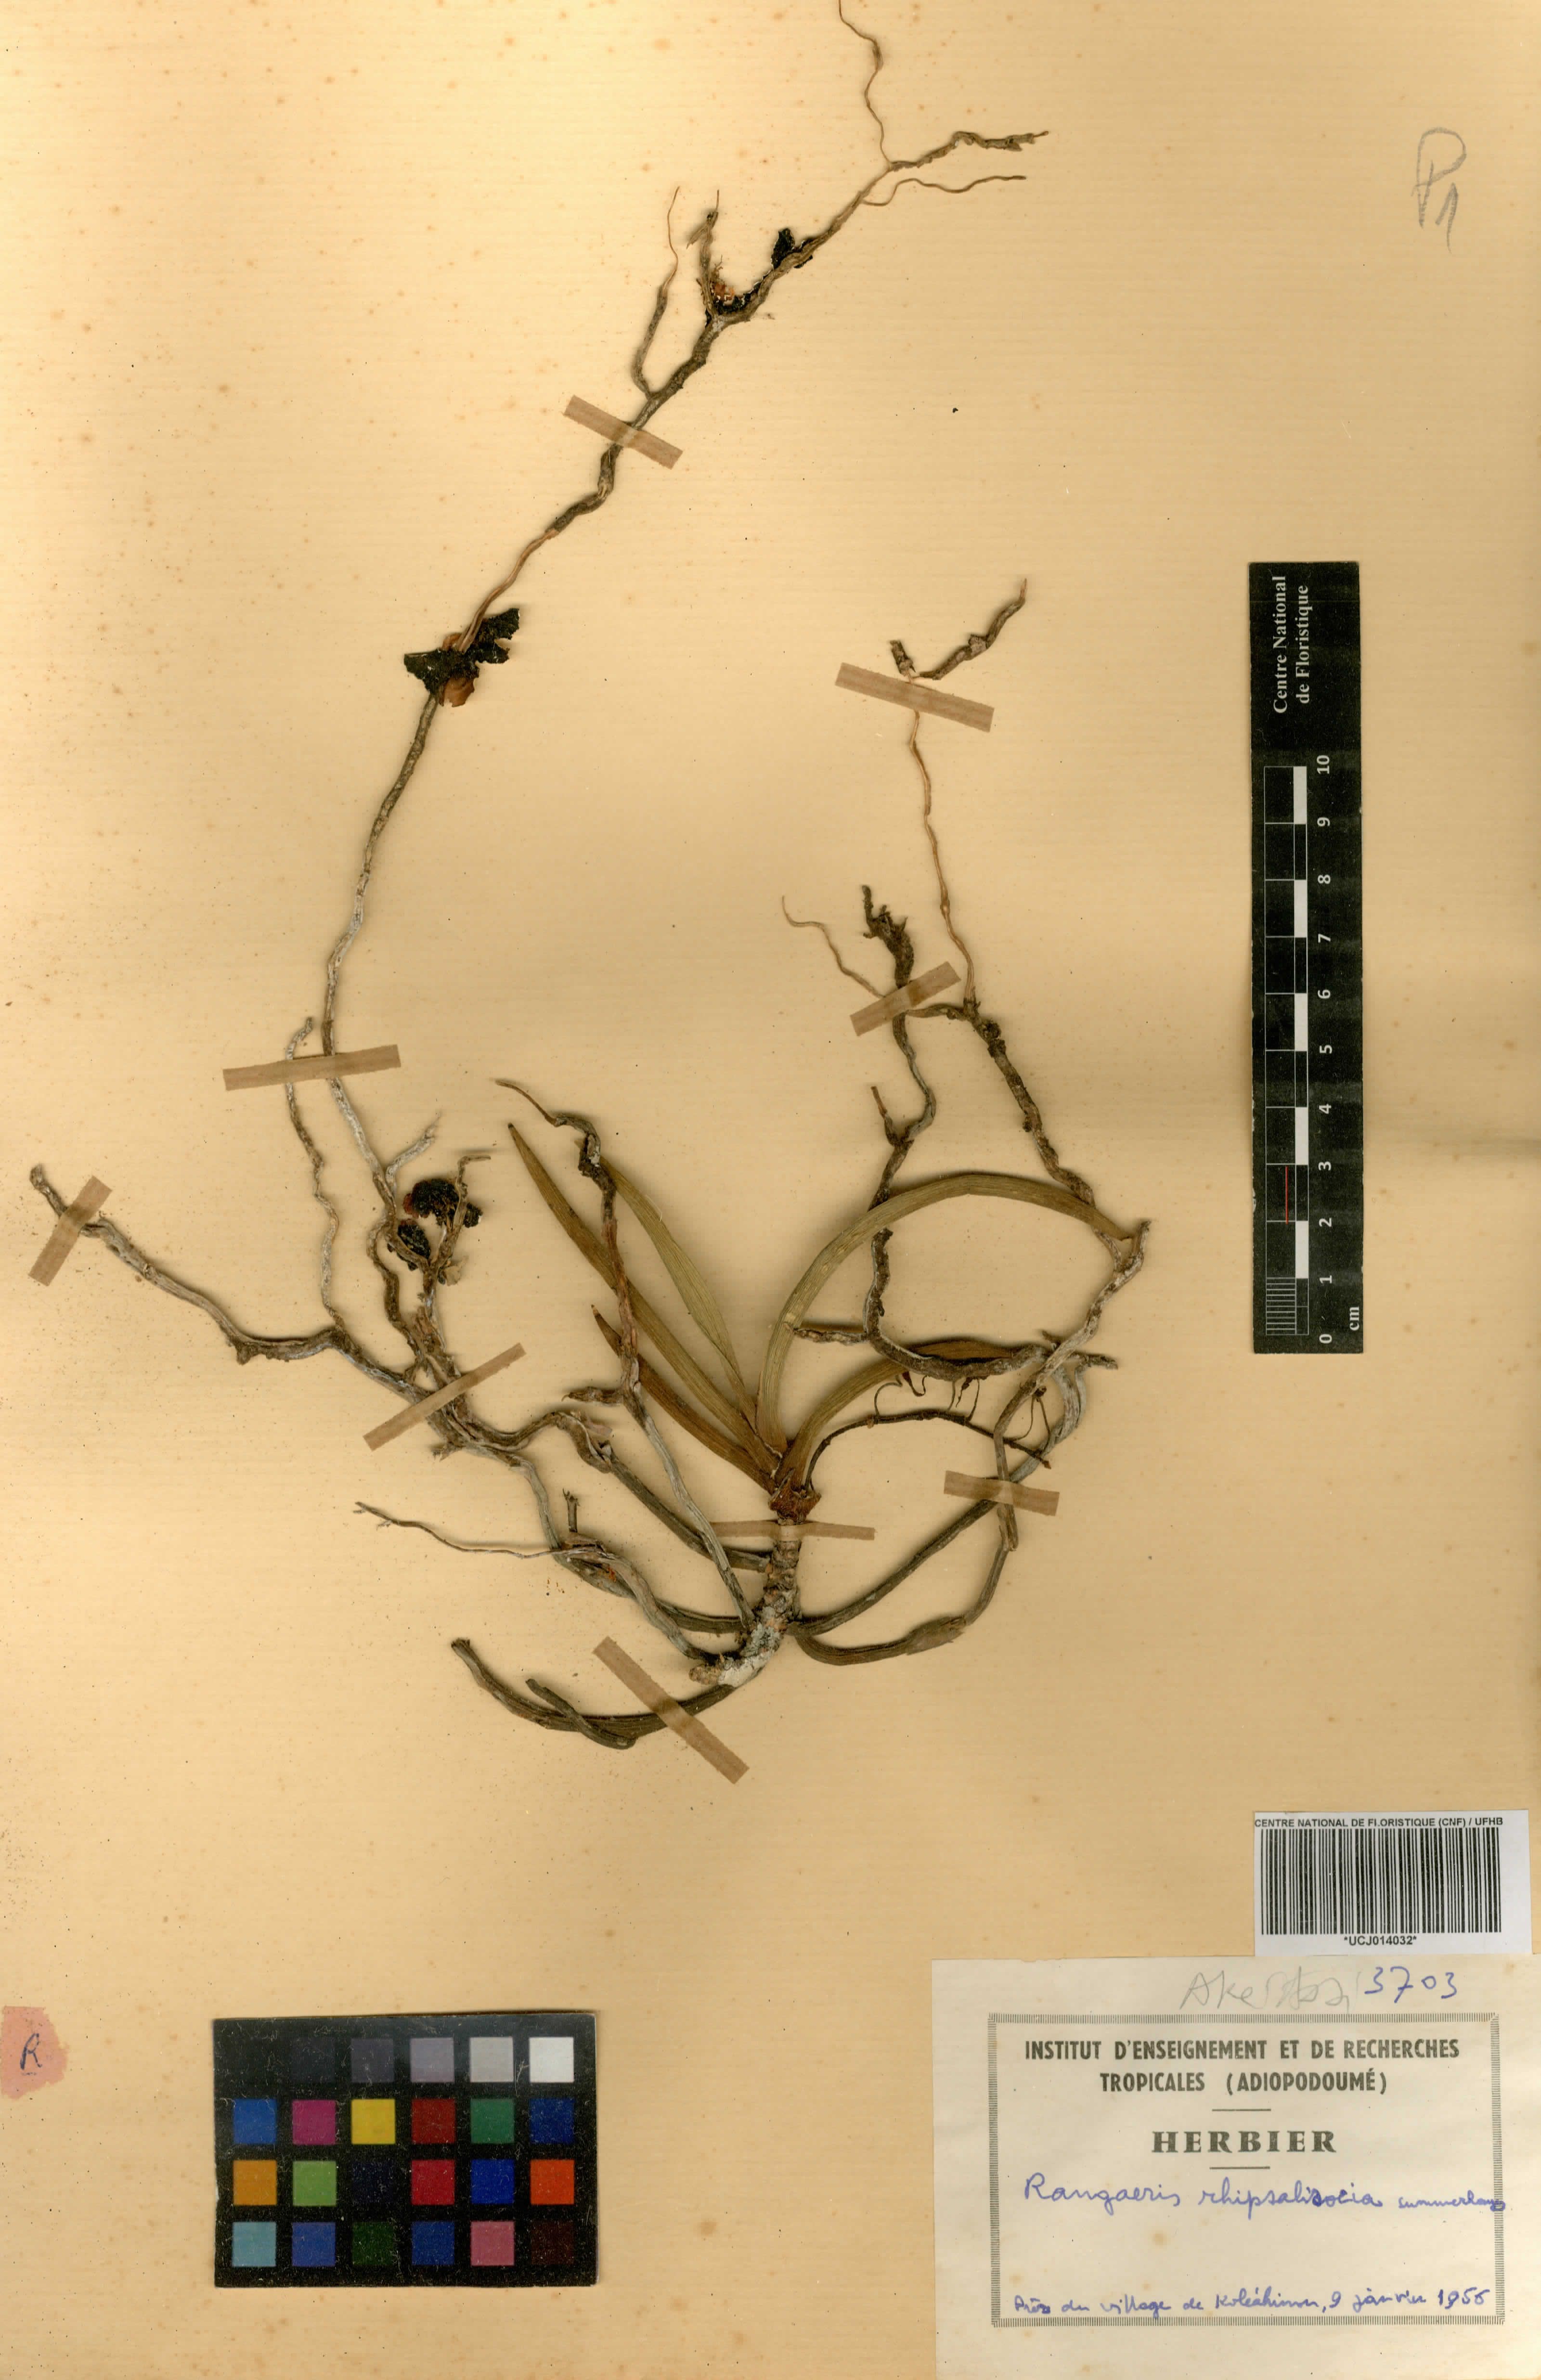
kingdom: Plantae
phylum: Tracheophyta
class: Liliopsida
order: Asparagales
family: Orchidaceae
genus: Podangis
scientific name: Podangis rhipsalisocia
